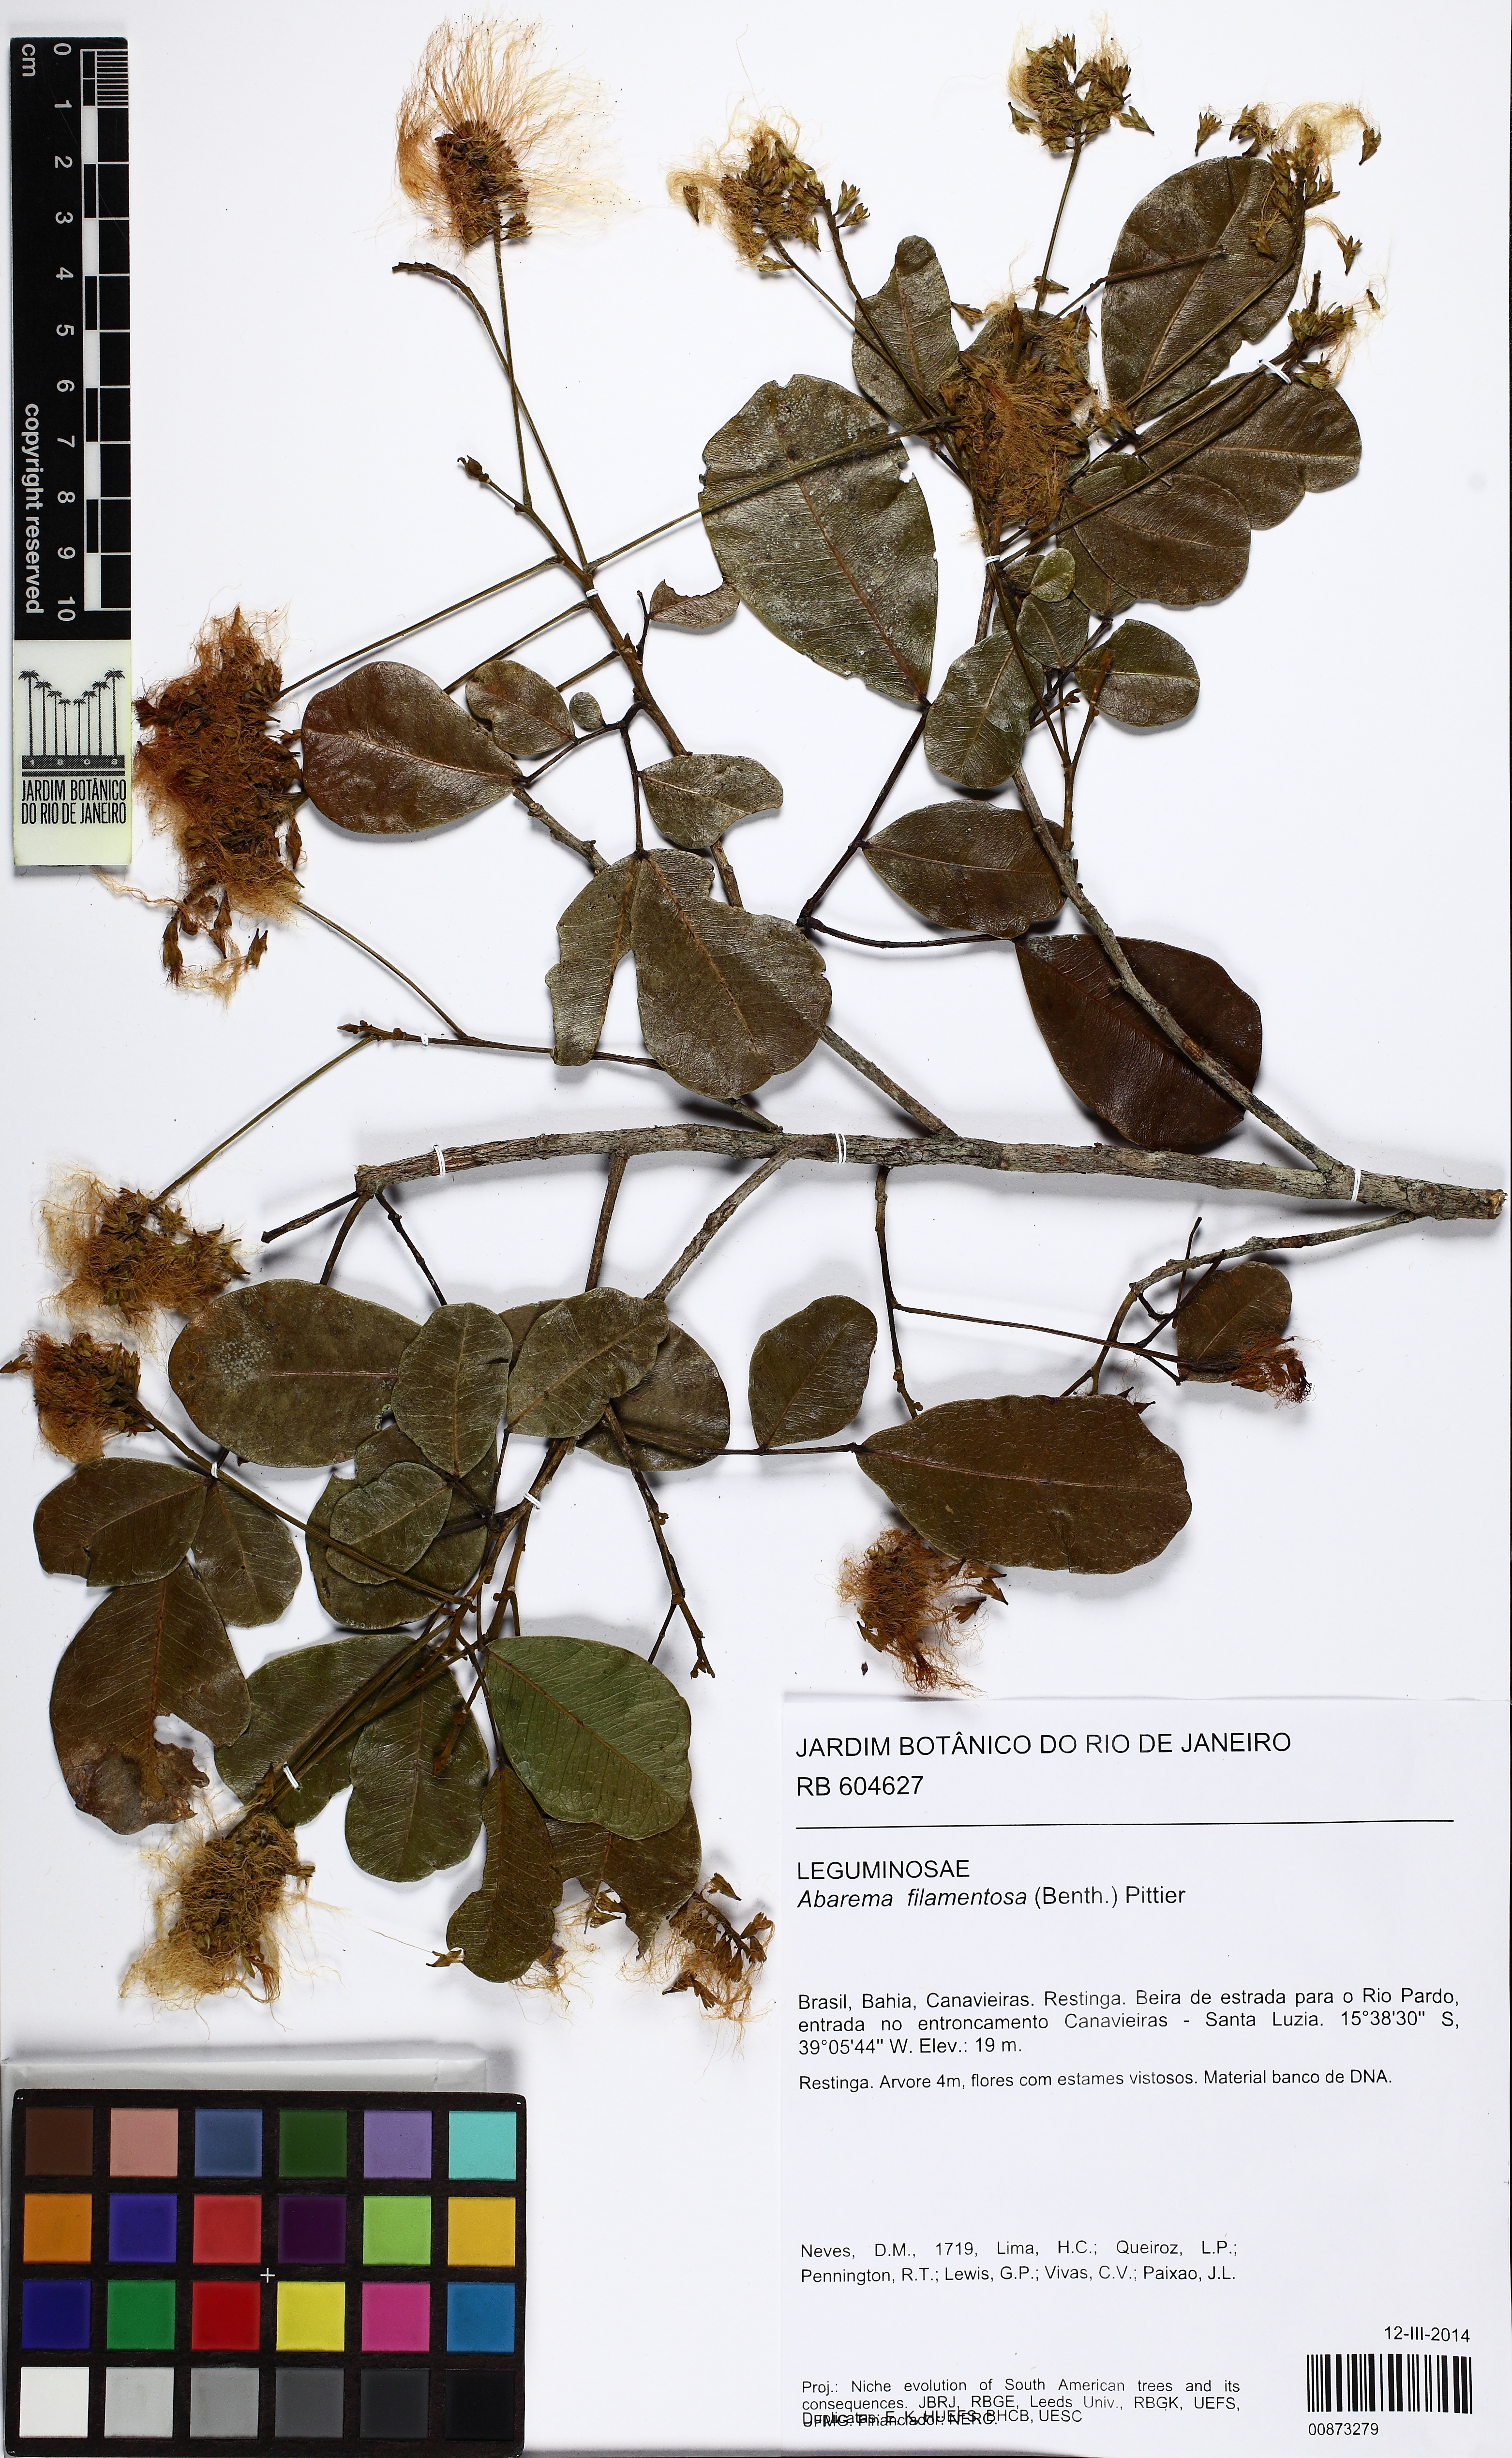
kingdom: Plantae
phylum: Tracheophyta
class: Magnoliopsida
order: Fabales
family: Fabaceae
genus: Jupunba
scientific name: Jupunba filamentosa
